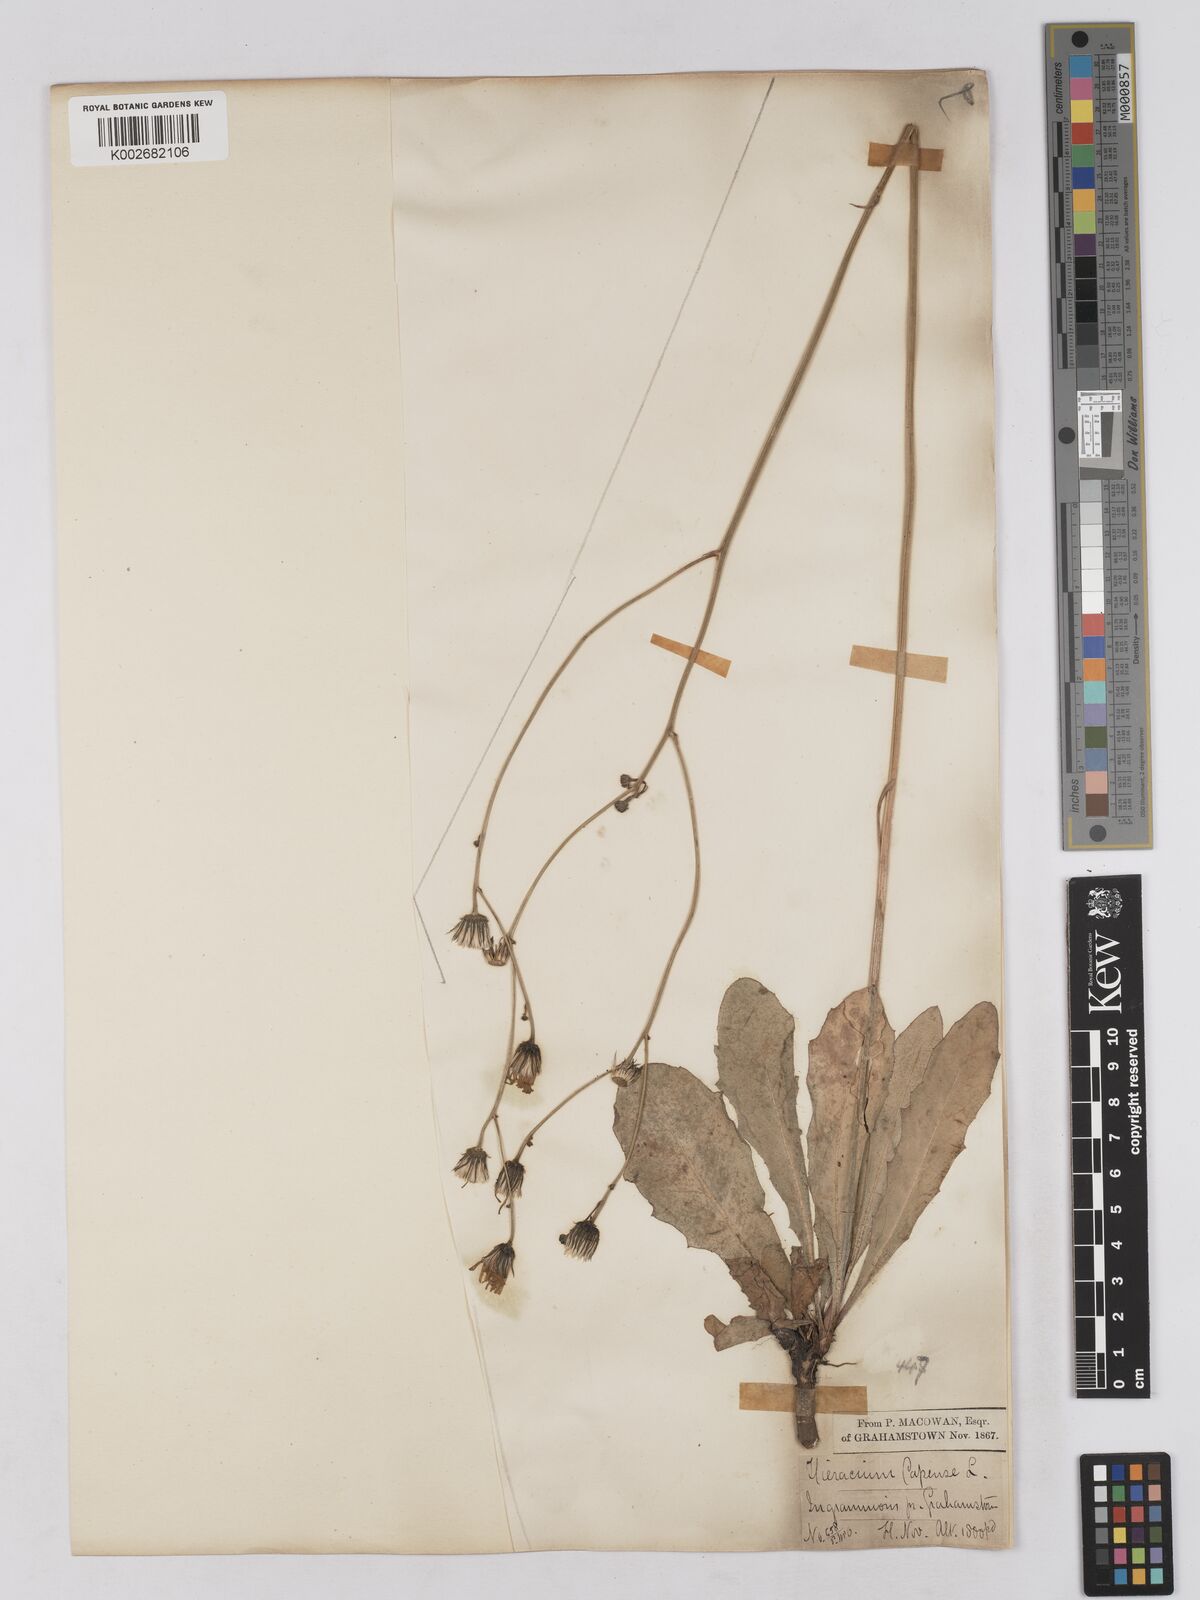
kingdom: Plantae
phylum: Tracheophyta
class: Magnoliopsida
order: Asterales
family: Asteraceae
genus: Tolpis
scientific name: Tolpis capensis
